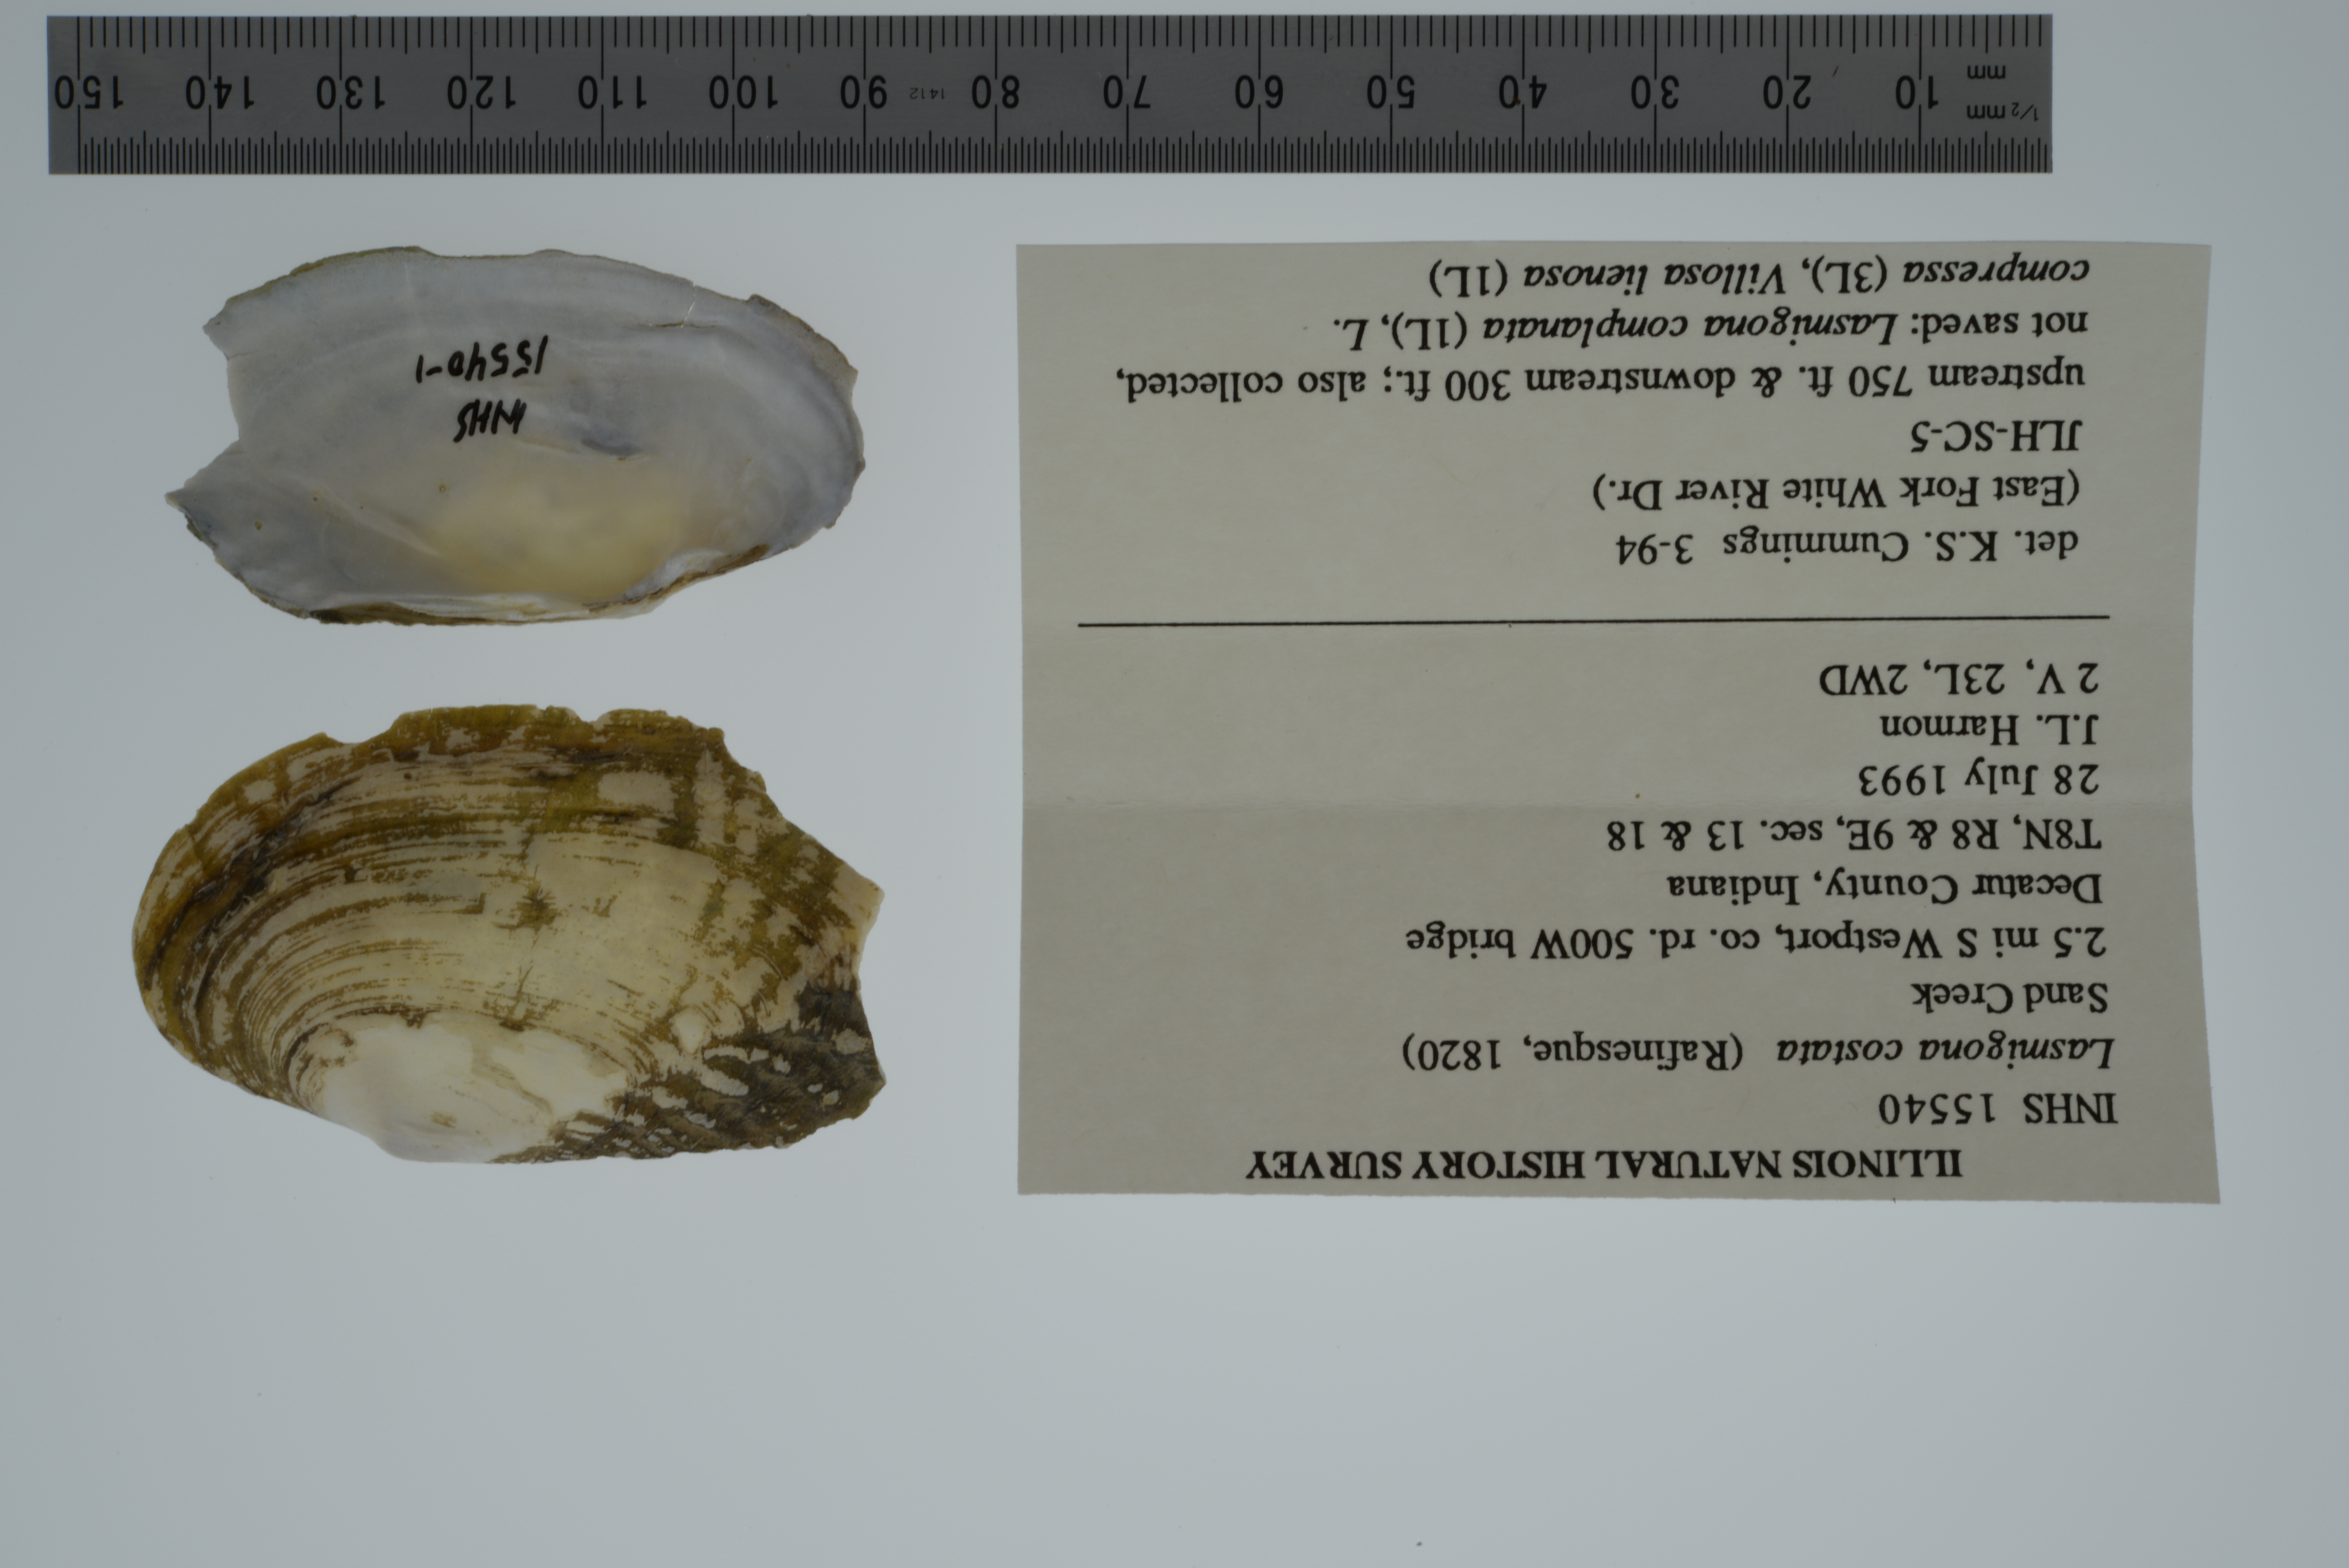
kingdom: Animalia
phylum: Mollusca
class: Bivalvia
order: Unionida
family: Unionidae
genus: Lasmigona
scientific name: Lasmigona costata
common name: Flutedshell
